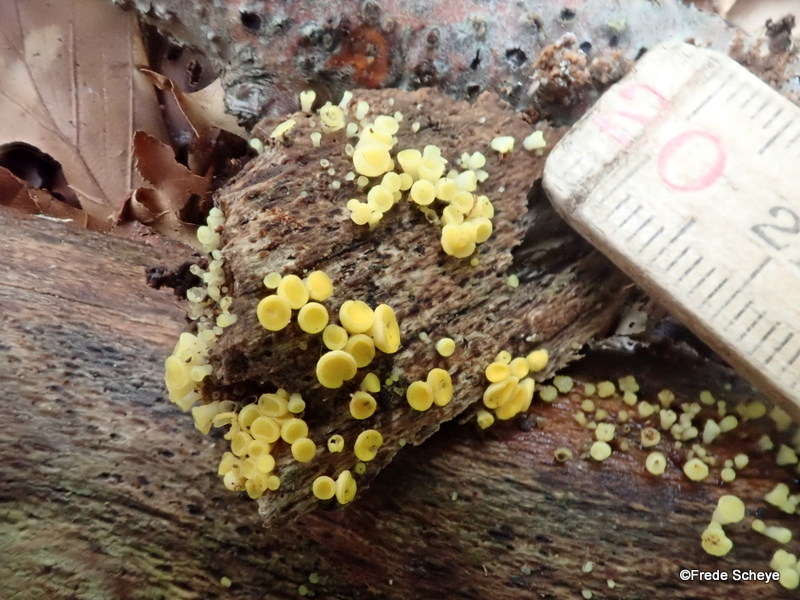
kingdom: Fungi
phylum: Ascomycota
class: Leotiomycetes
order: Helotiales
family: Pezizellaceae
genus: Calycina
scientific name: Calycina citrina
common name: almindelig gulskive
